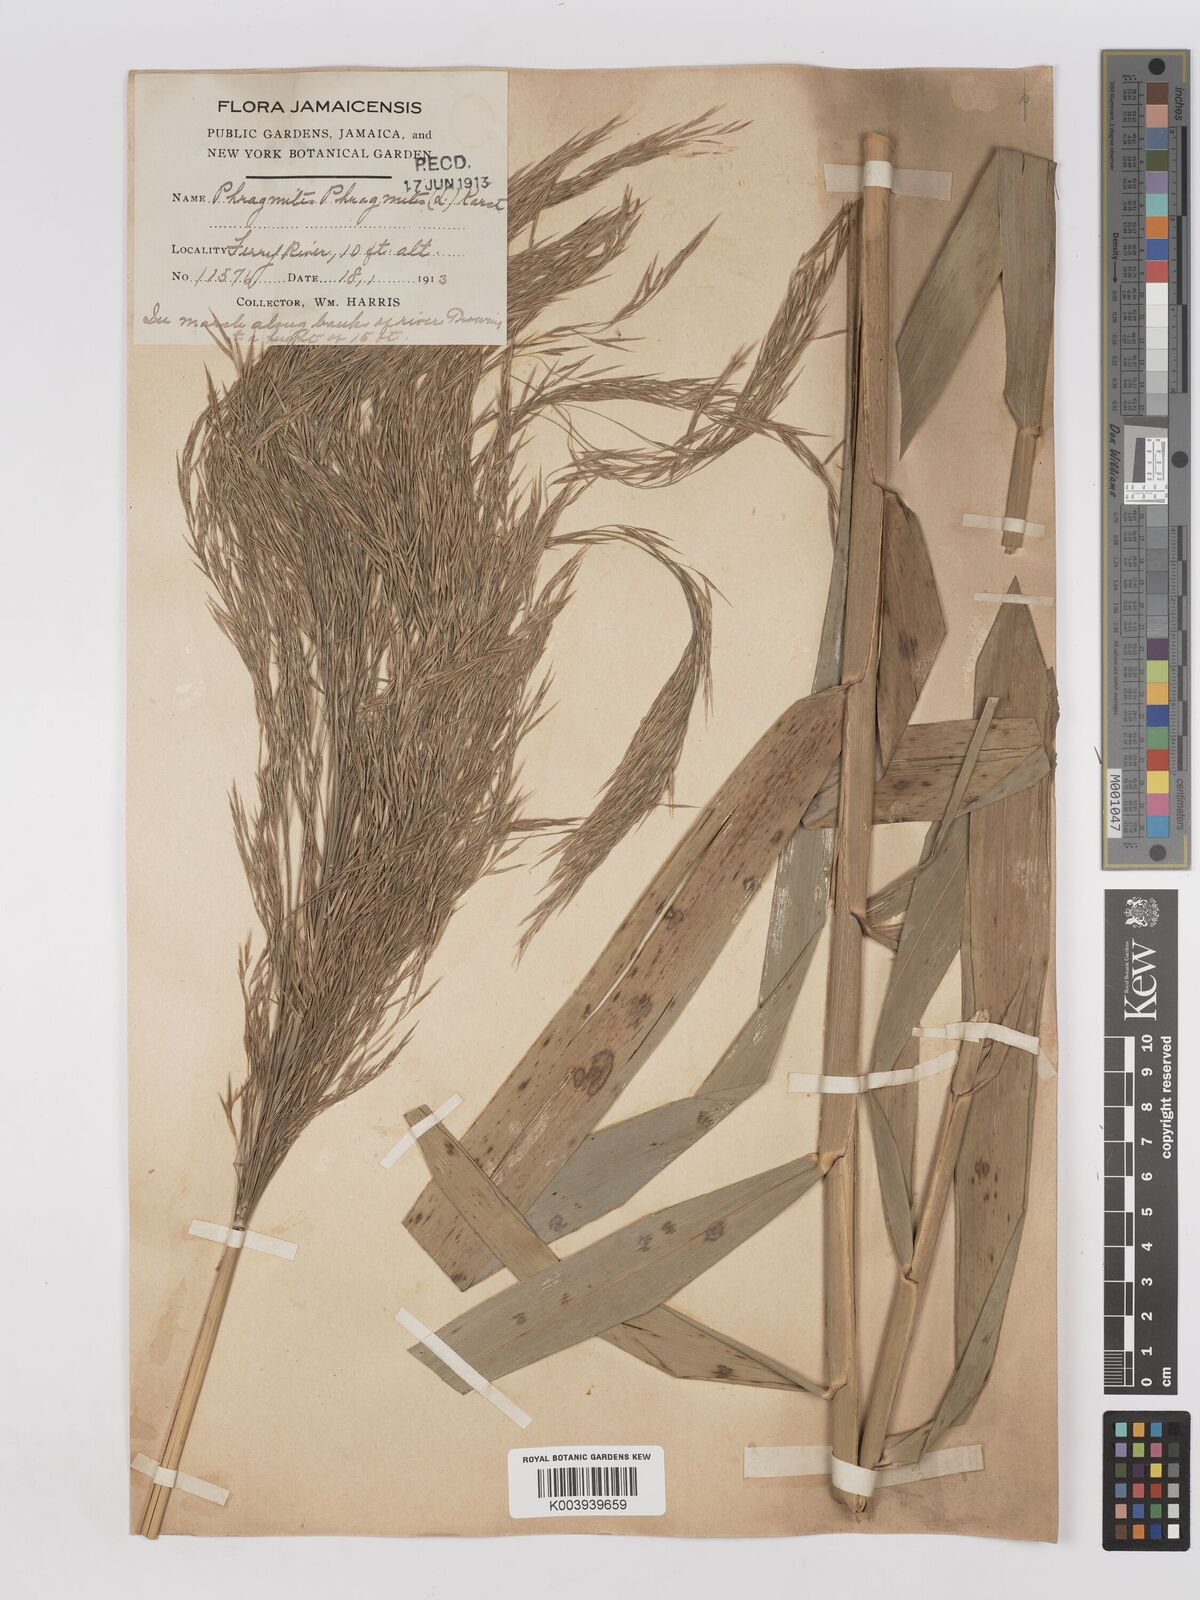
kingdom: Plantae
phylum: Tracheophyta
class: Liliopsida
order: Poales
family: Poaceae
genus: Phragmites
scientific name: Phragmites australis
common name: Common reed
